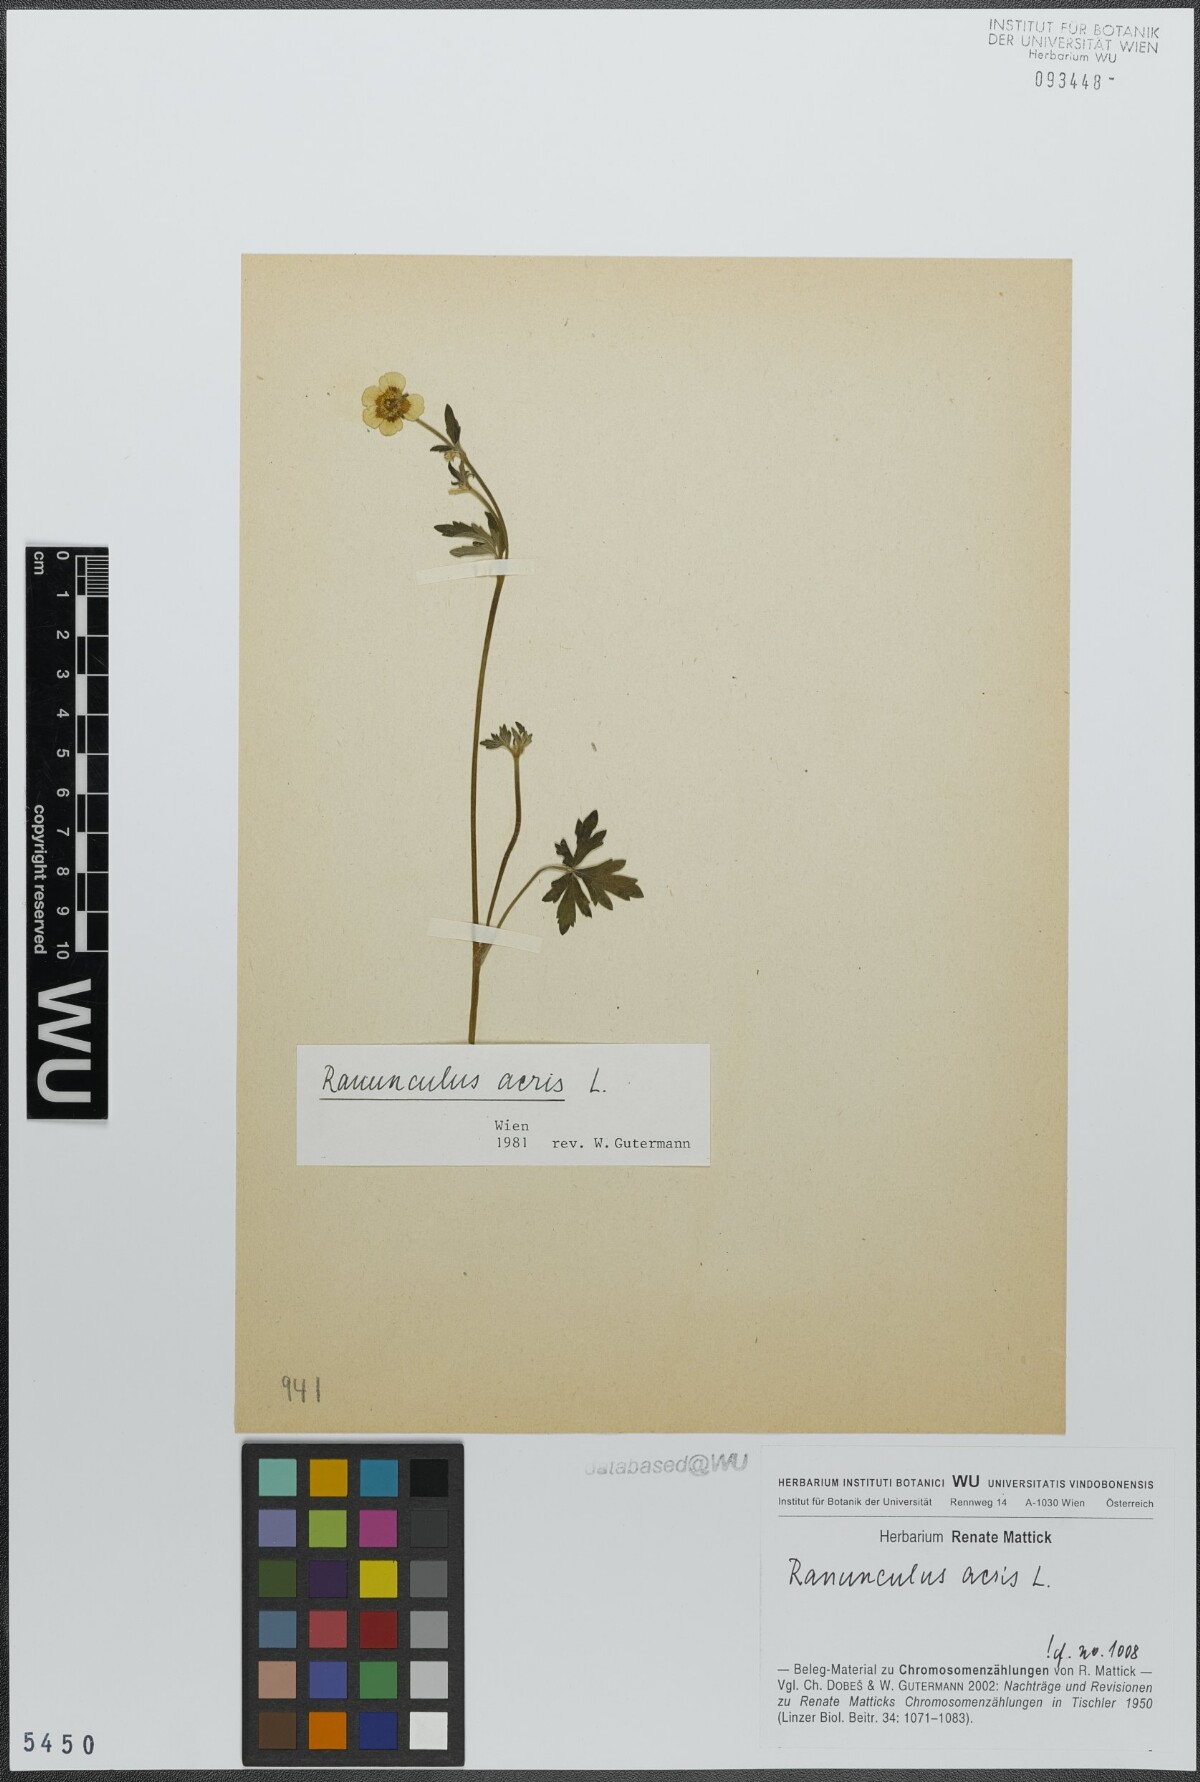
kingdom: Plantae
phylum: Tracheophyta
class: Magnoliopsida
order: Ranunculales
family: Ranunculaceae
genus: Ranunculus
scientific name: Ranunculus acris
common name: Meadow buttercup
